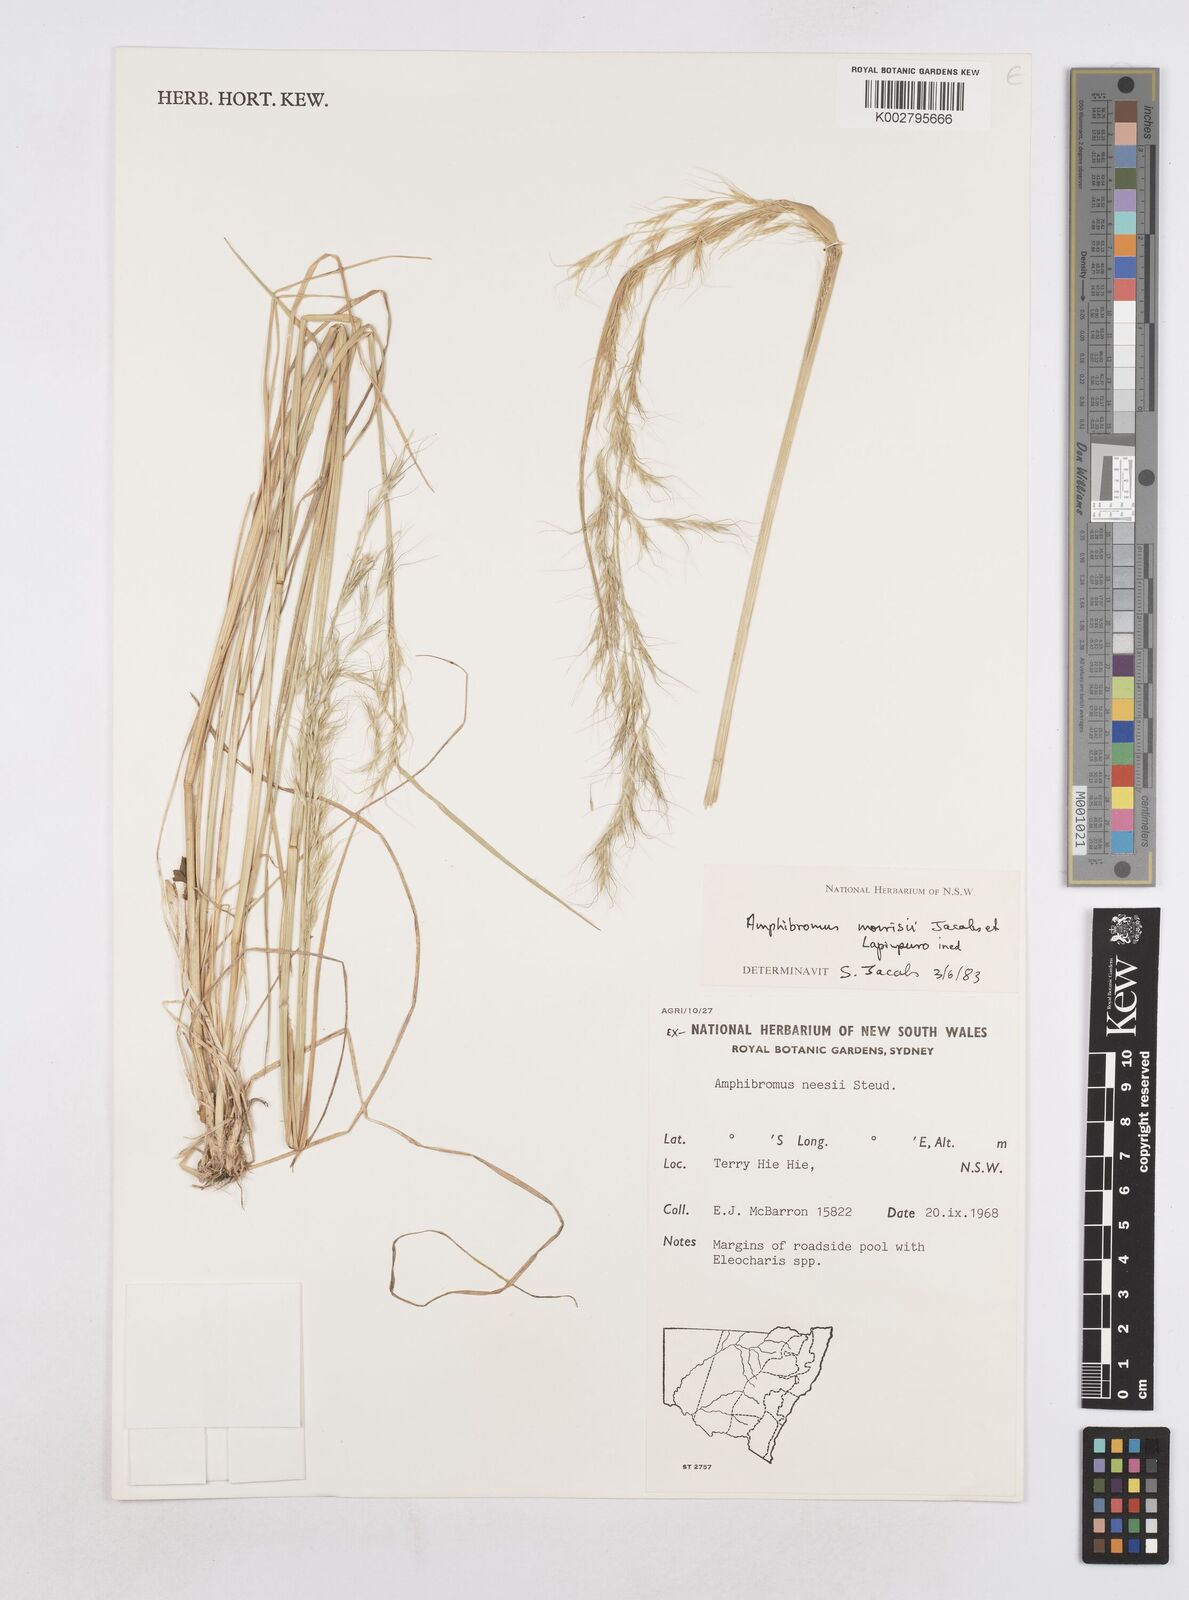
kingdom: Plantae
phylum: Tracheophyta
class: Liliopsida
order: Poales
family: Poaceae
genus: Amphibromus
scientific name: Amphibromus neesii
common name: Australian wallaby grass
